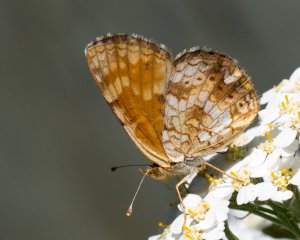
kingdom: Animalia
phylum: Arthropoda
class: Insecta
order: Lepidoptera
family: Nymphalidae
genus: Phyciodes
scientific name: Phyciodes tharos
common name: Field Crescent
